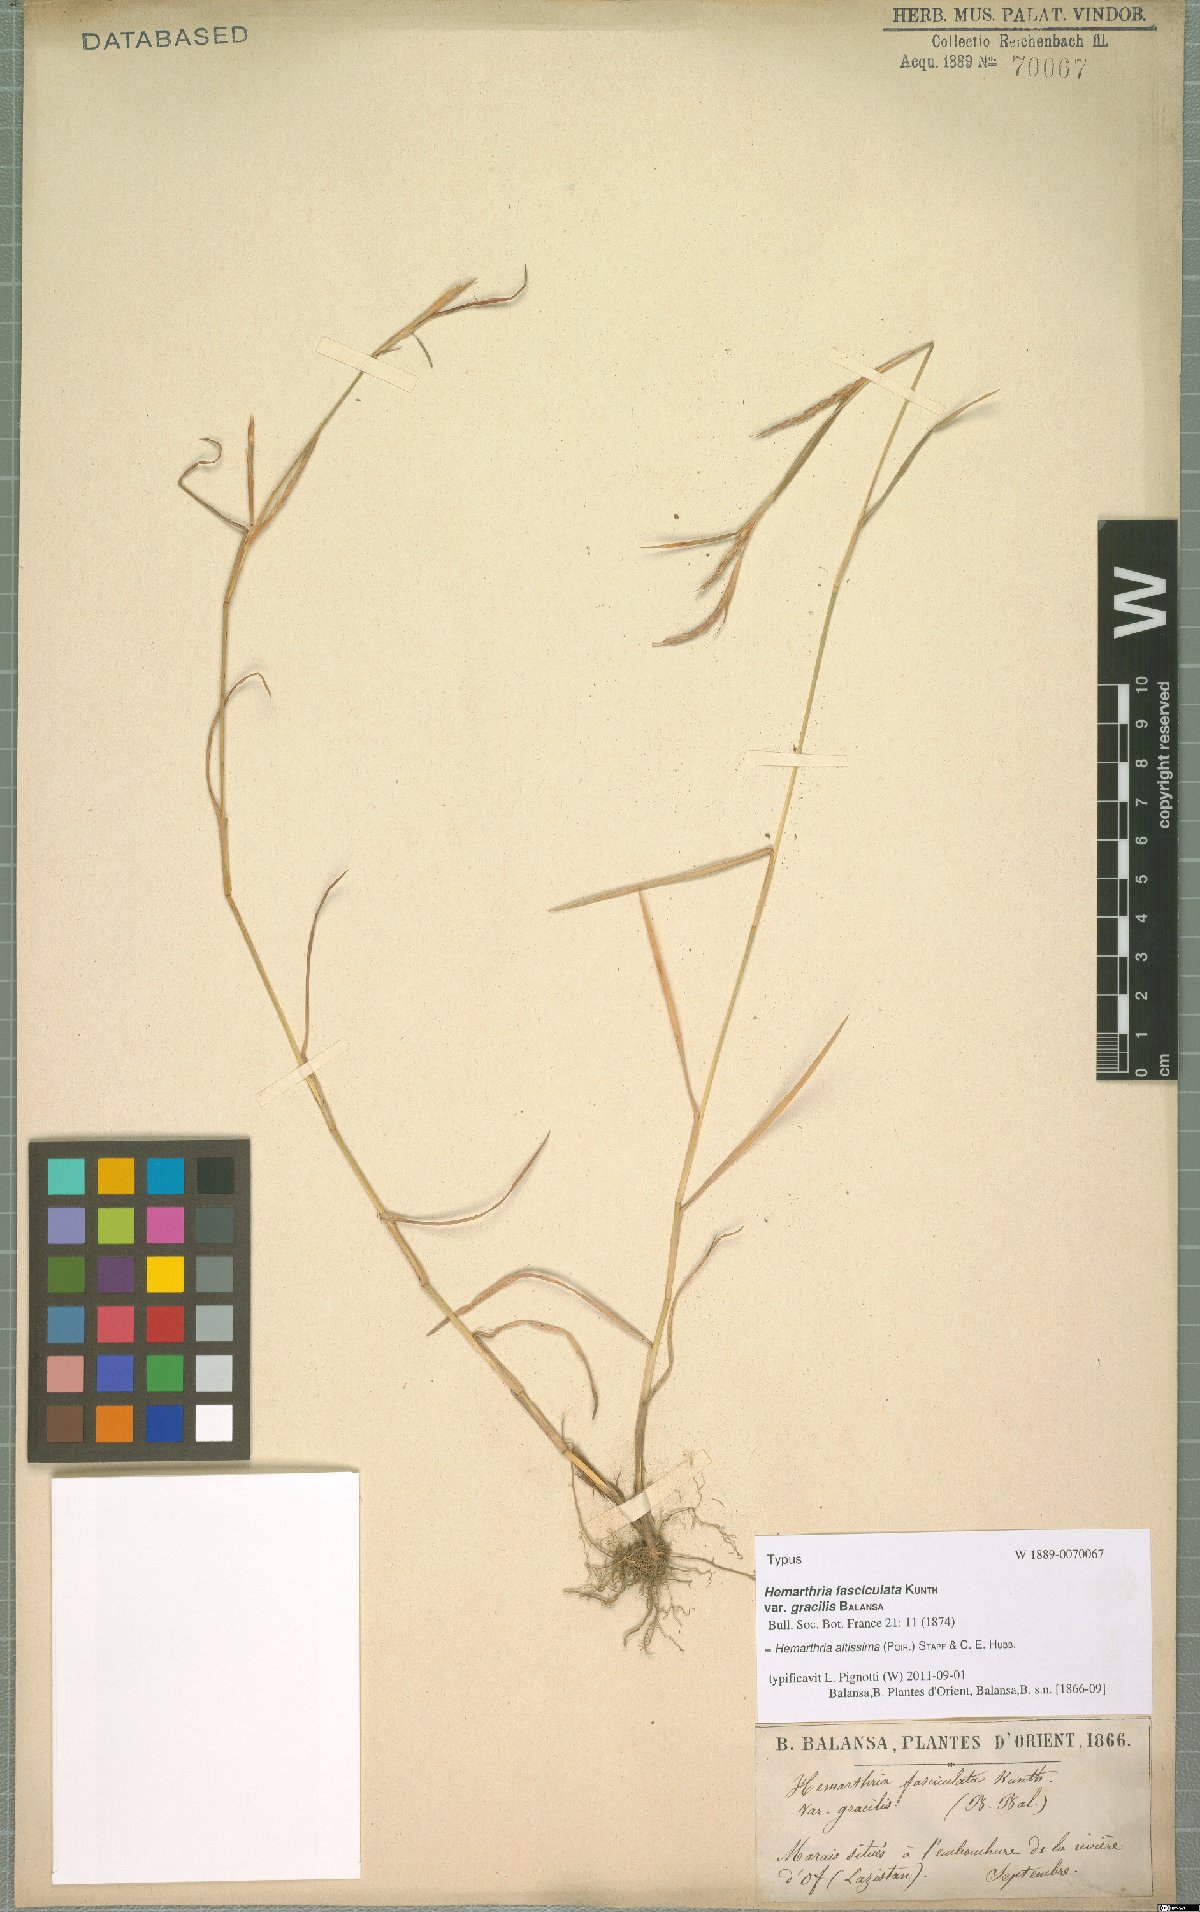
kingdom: Plantae
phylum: Tracheophyta
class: Liliopsida
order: Poales
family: Poaceae
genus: Hemarthria
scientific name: Hemarthria altissima
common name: African jointgrass
